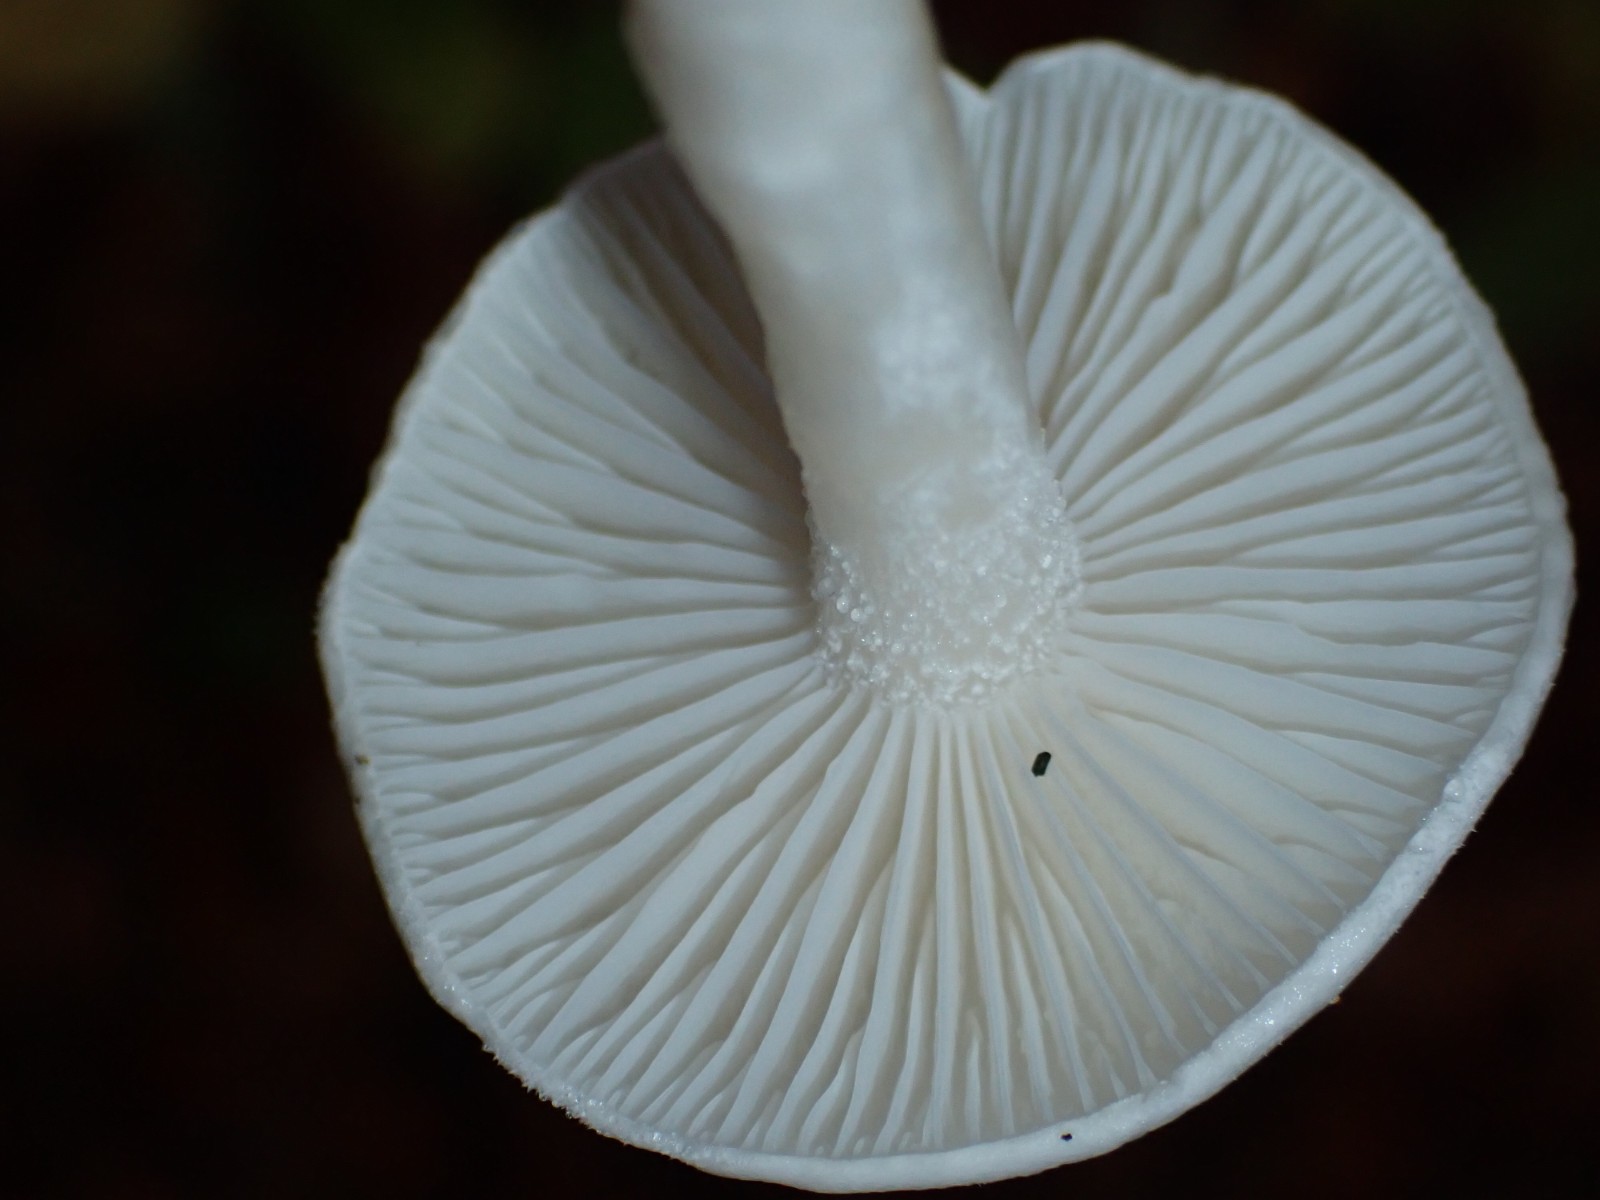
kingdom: Fungi
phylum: Basidiomycota
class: Agaricomycetes
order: Agaricales
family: Hygrophoraceae
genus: Hygrophorus
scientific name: Hygrophorus eburneus
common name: elfenbens-sneglehat
